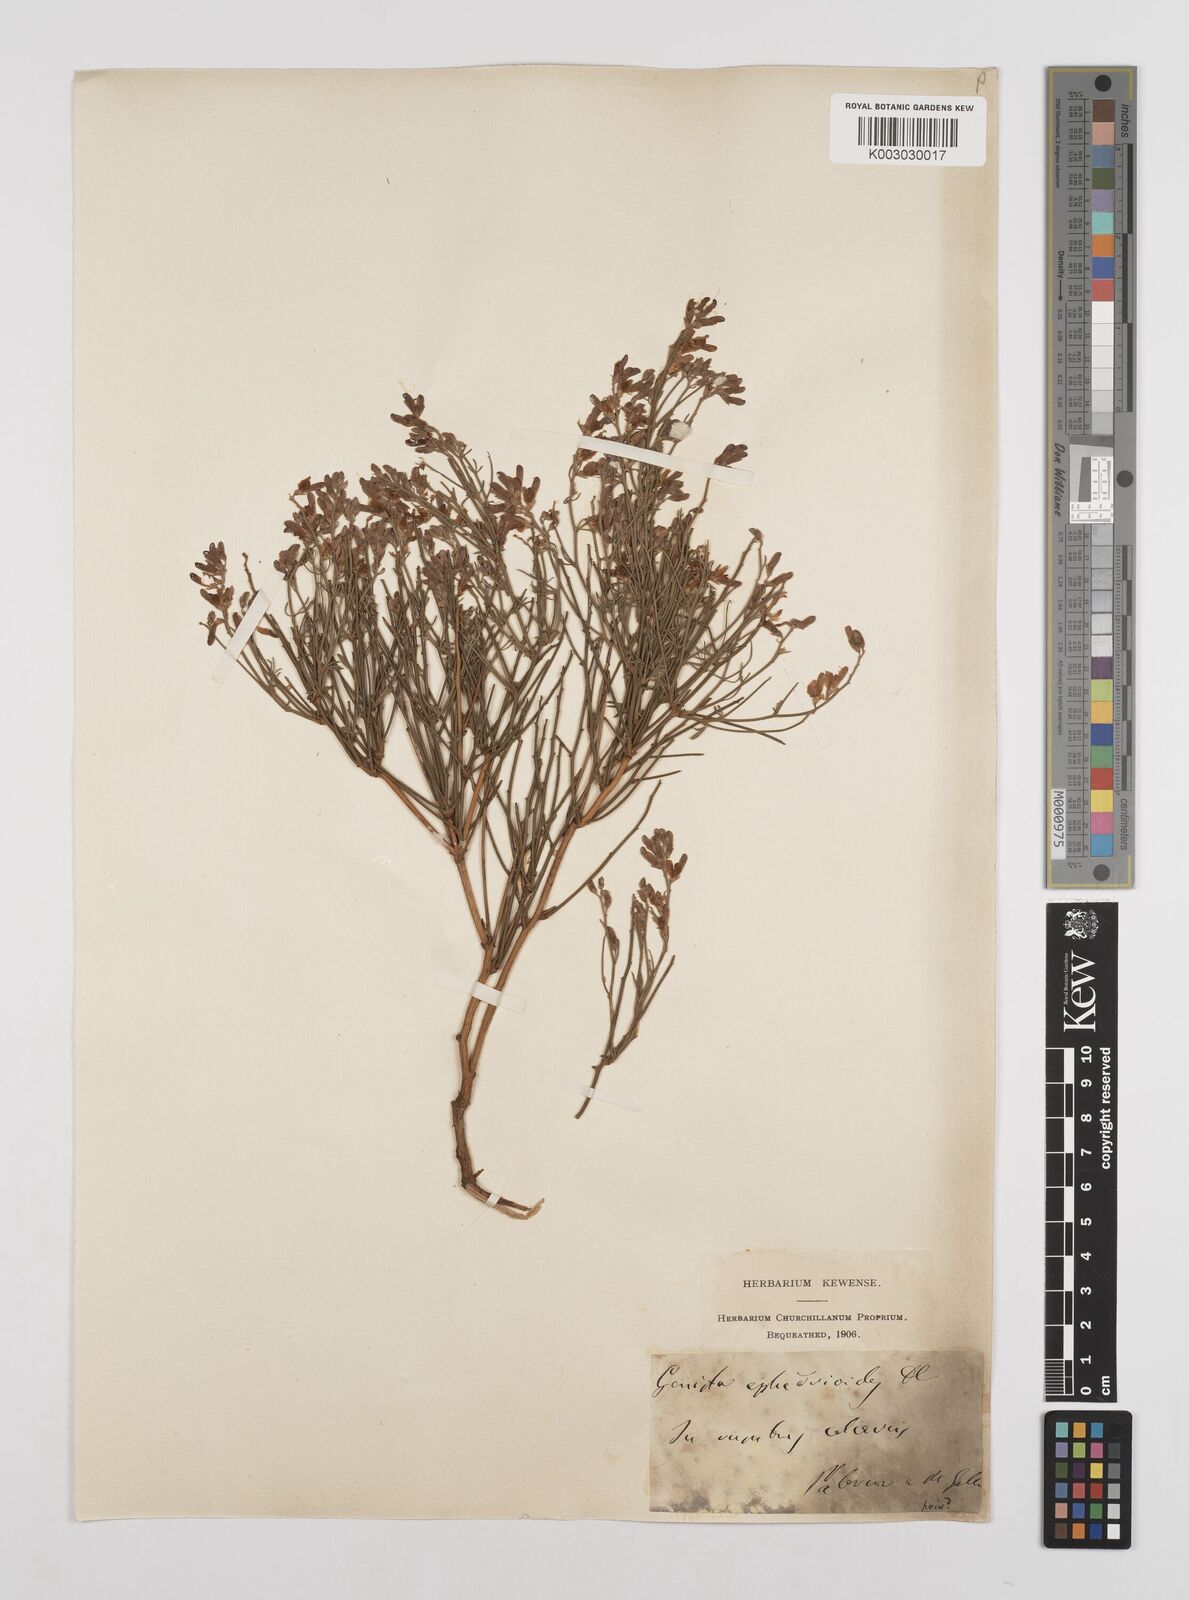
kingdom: Plantae
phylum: Tracheophyta
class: Magnoliopsida
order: Fabales
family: Fabaceae
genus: Genista
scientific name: Genista ephedroides
